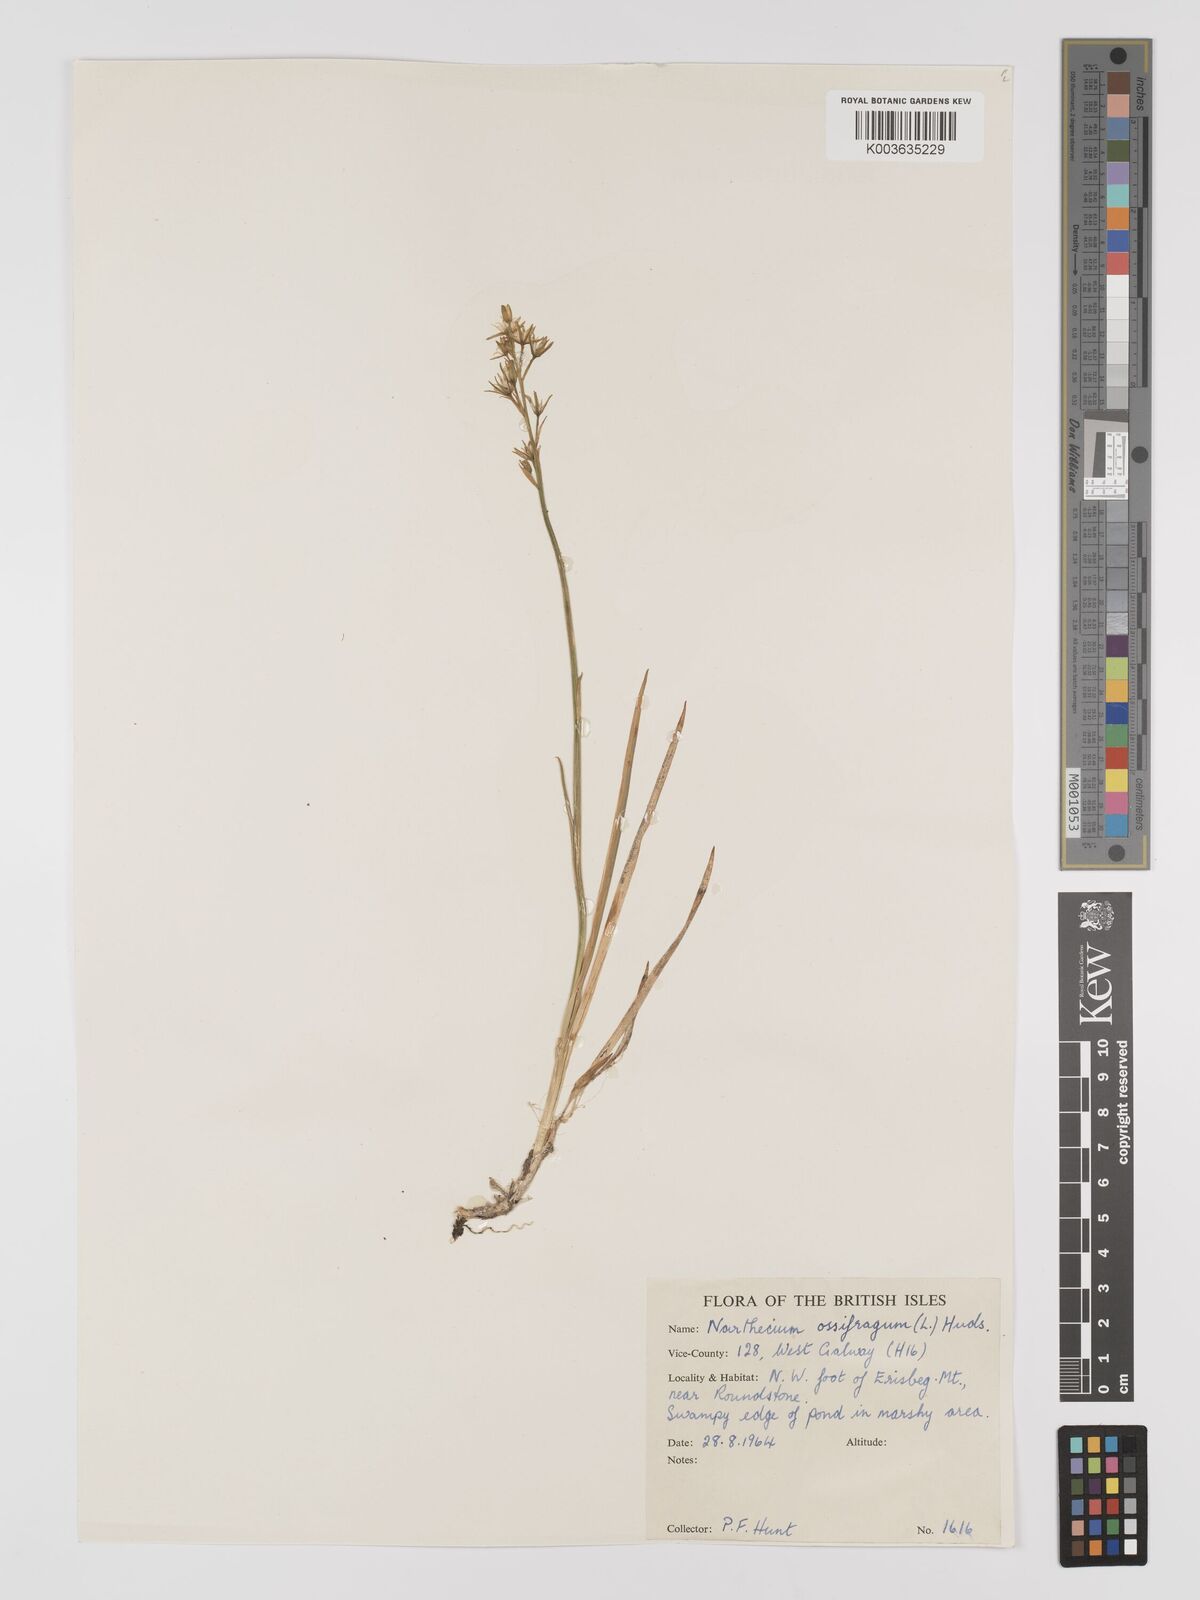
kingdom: Plantae
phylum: Tracheophyta
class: Liliopsida
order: Dioscoreales
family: Nartheciaceae
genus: Narthecium
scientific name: Narthecium ossifragum
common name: Bog asphodel
